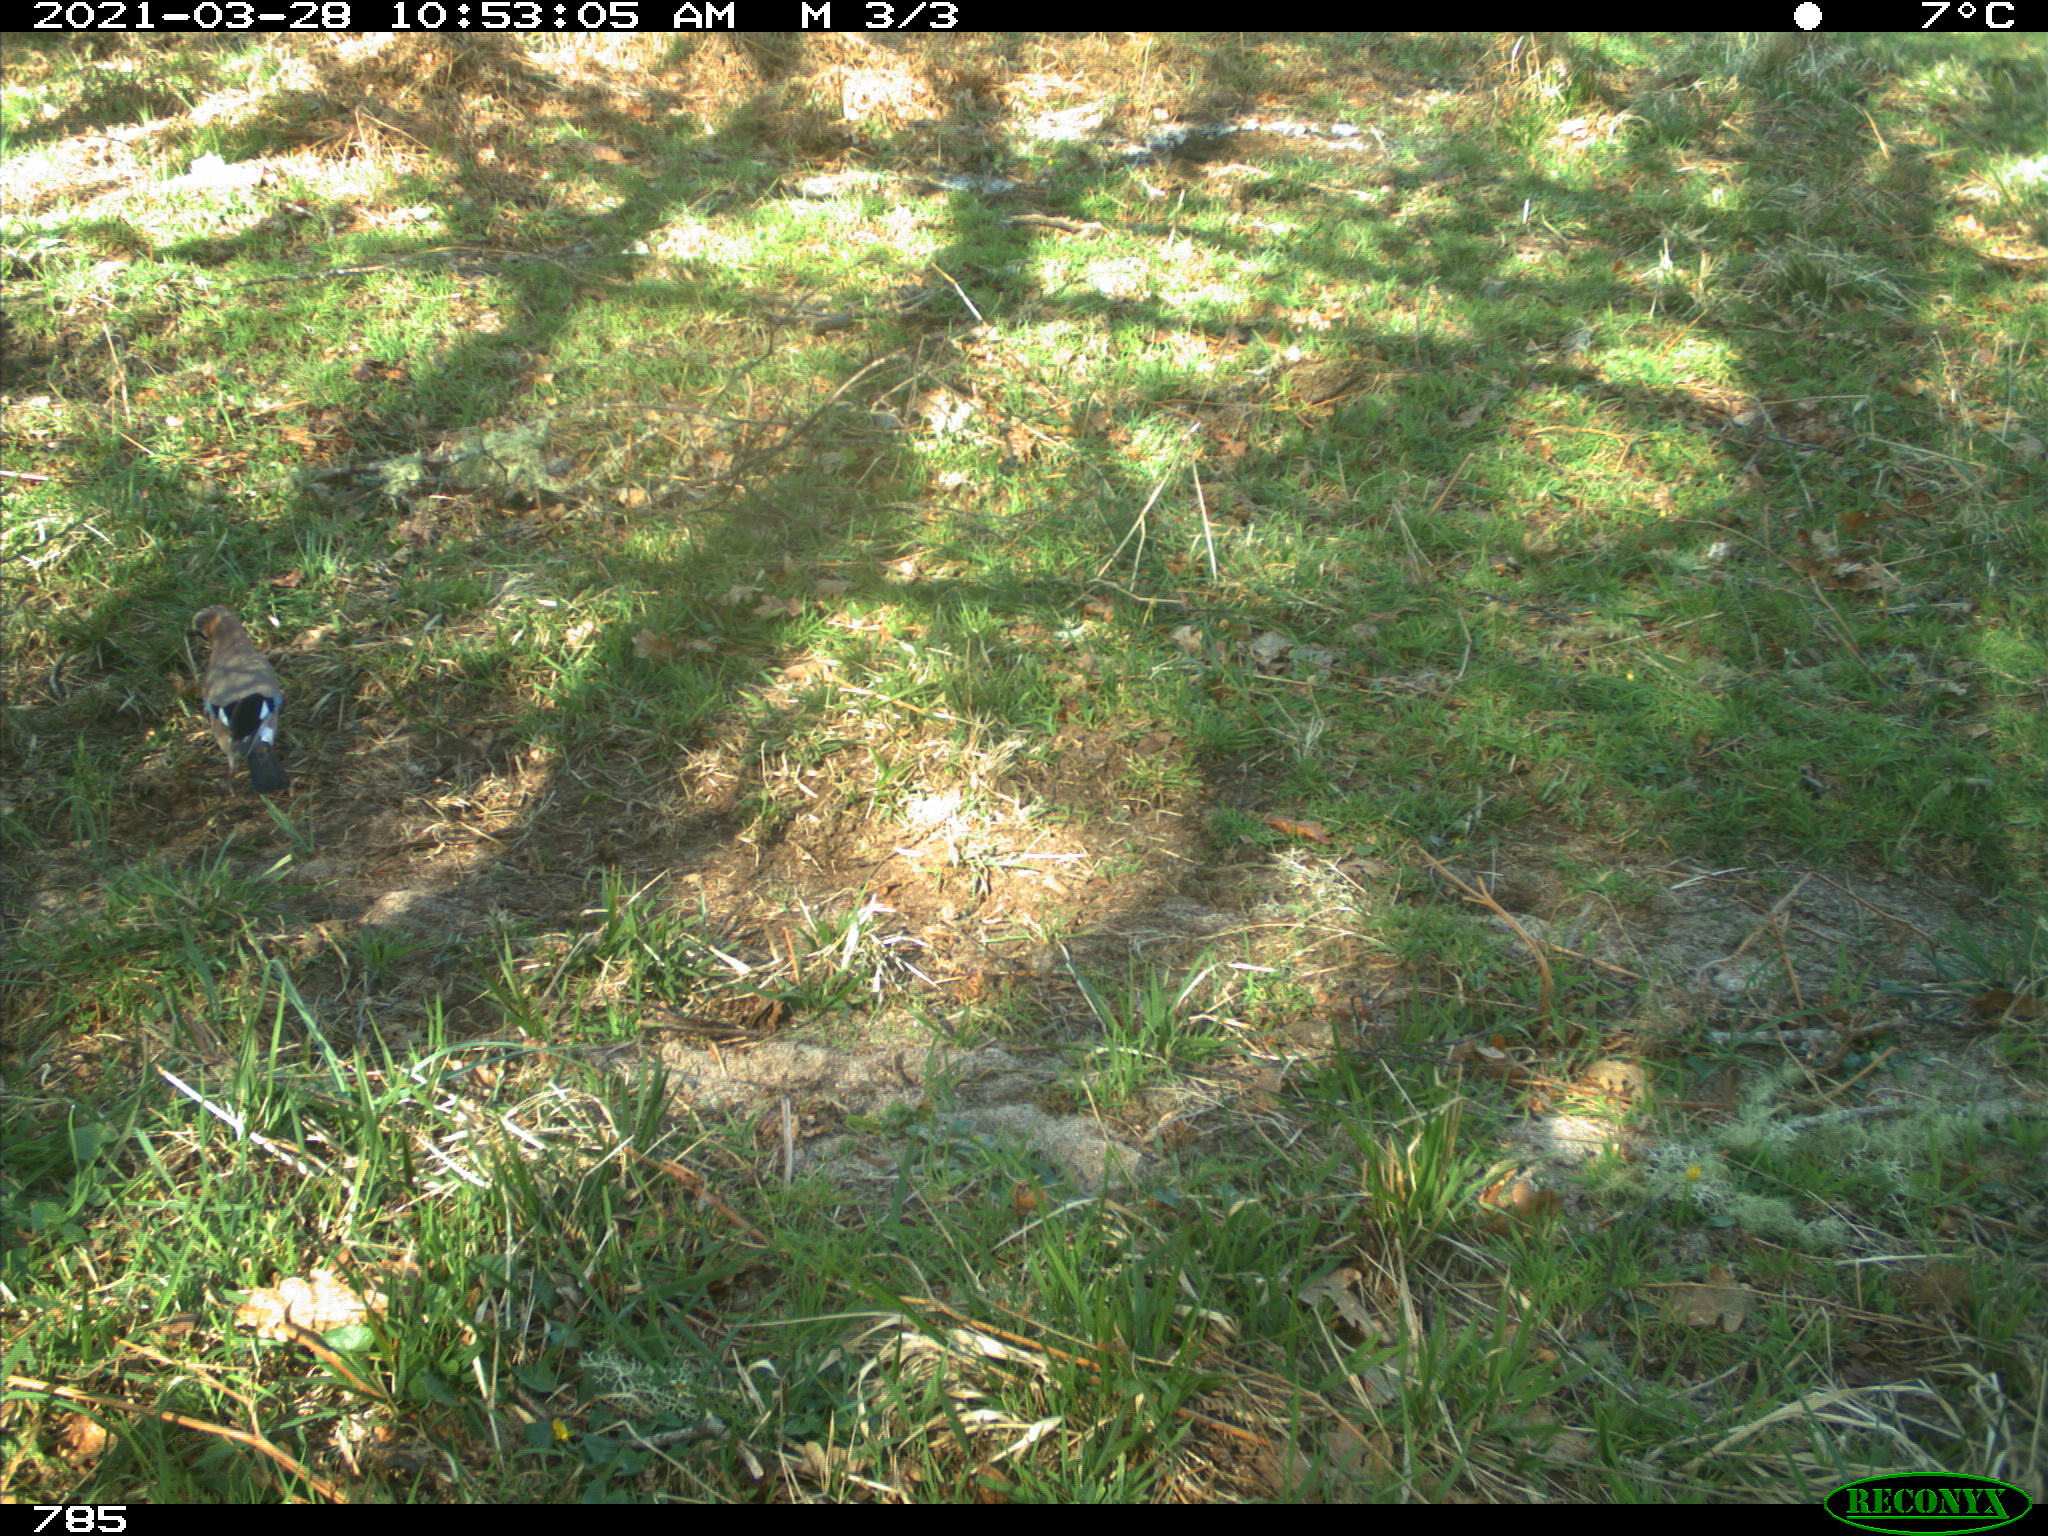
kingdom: Animalia
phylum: Chordata
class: Aves
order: Passeriformes
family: Corvidae
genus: Garrulus
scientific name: Garrulus glandarius
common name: Eurasian jay
